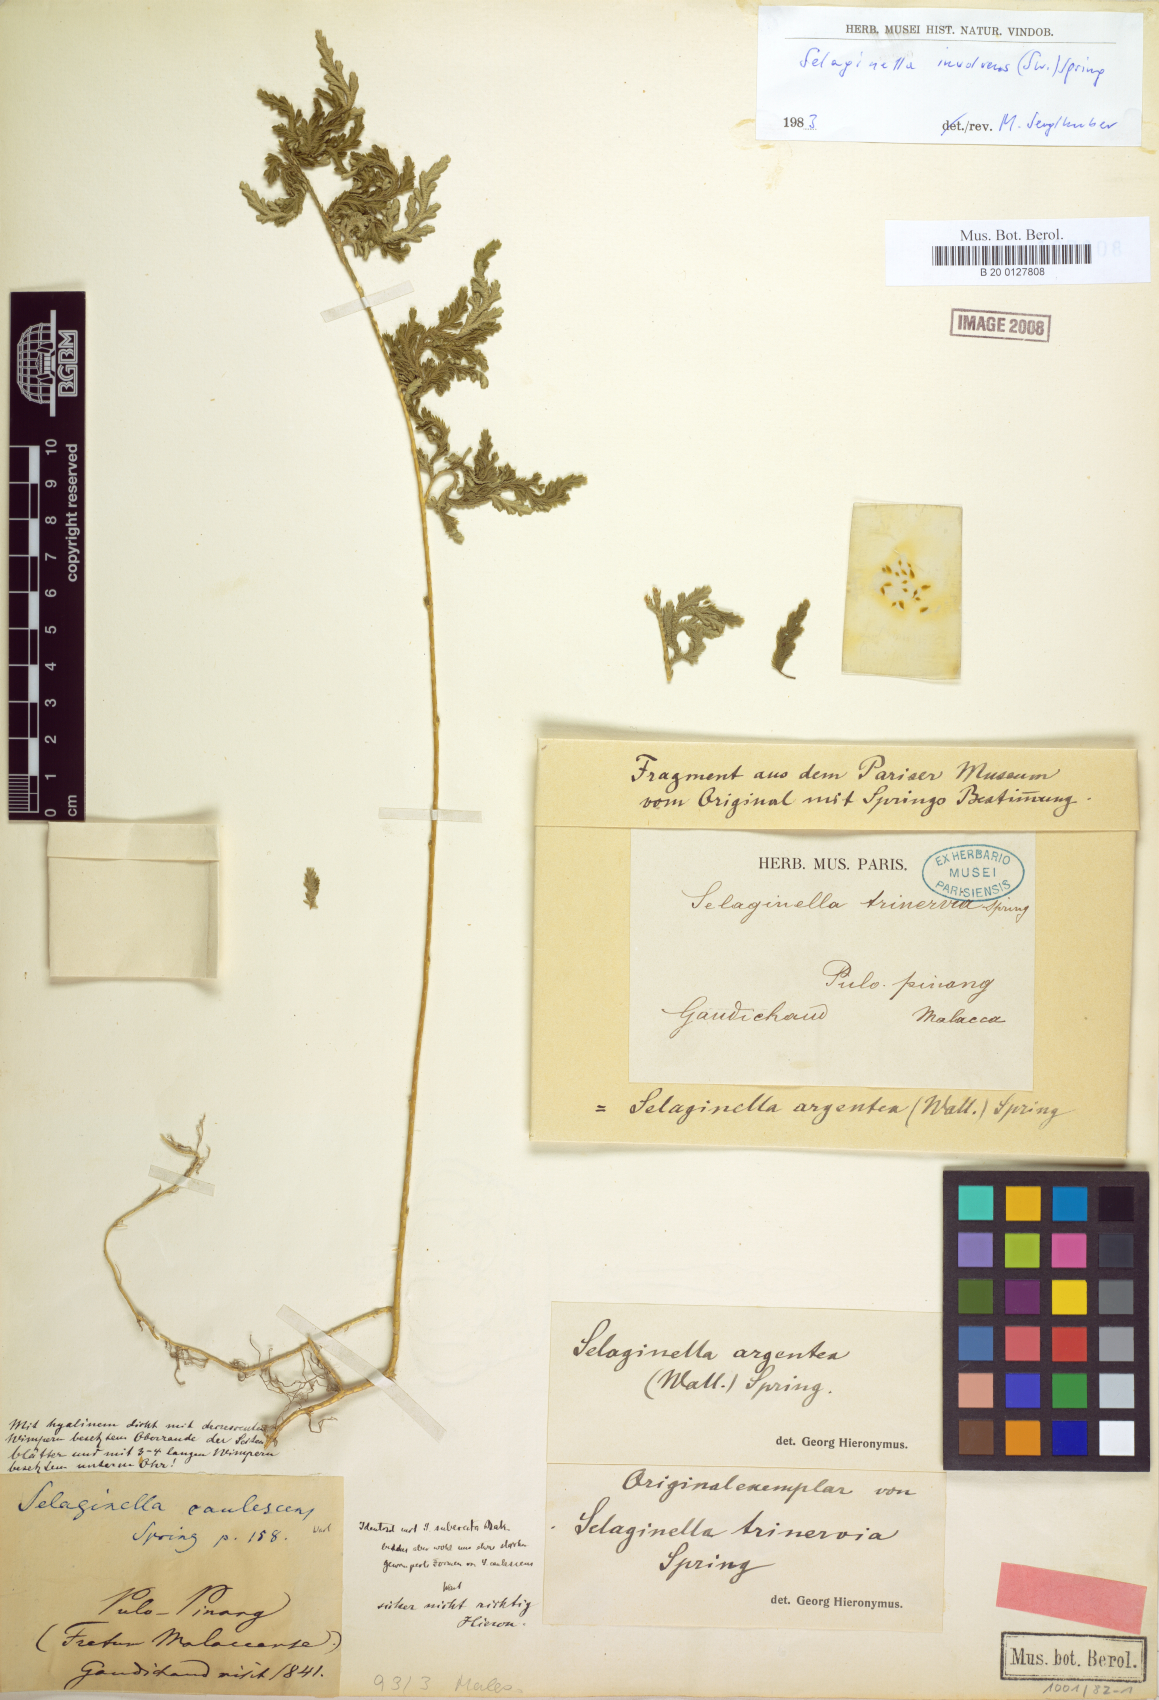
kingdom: Plantae
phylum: Tracheophyta
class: Lycopodiopsida
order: Selaginellales
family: Selaginellaceae
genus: Selaginella
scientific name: Selaginella argentea
